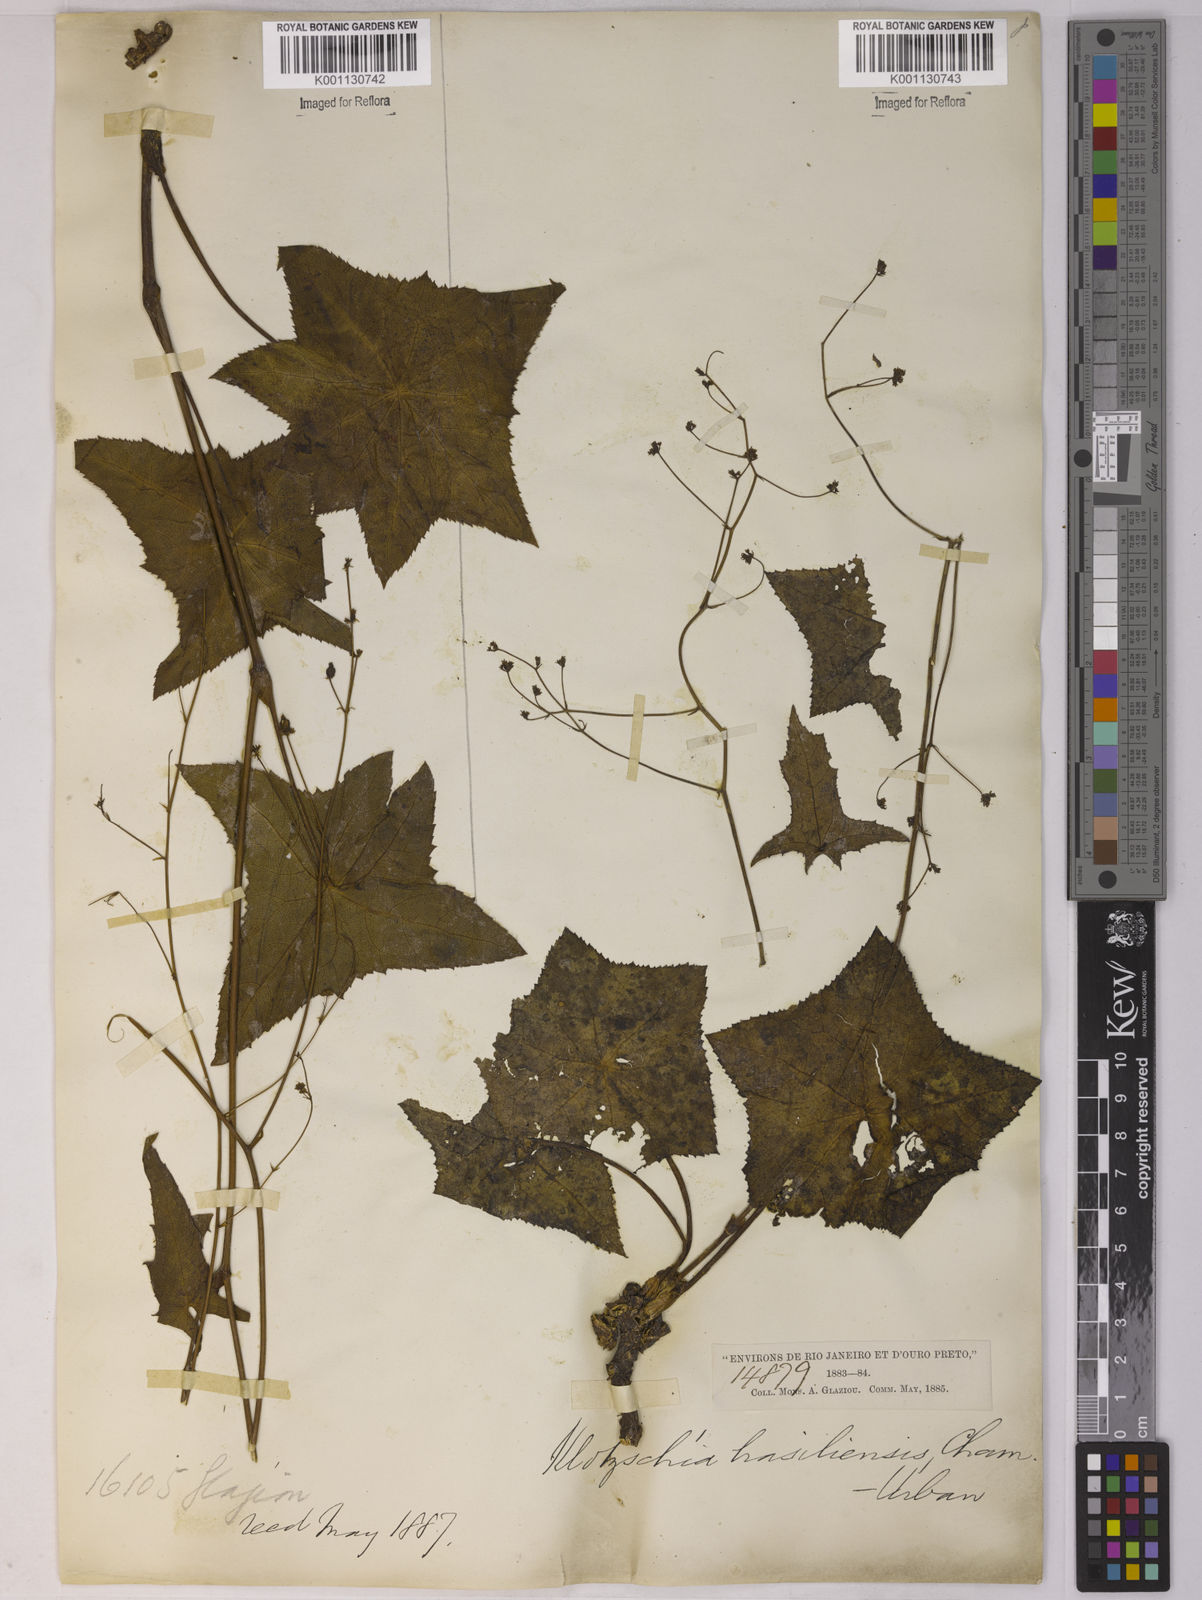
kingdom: Plantae
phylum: Tracheophyta
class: Magnoliopsida
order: Apiales
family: Apiaceae
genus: Klotzschia
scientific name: Klotzschia brasiliensis
